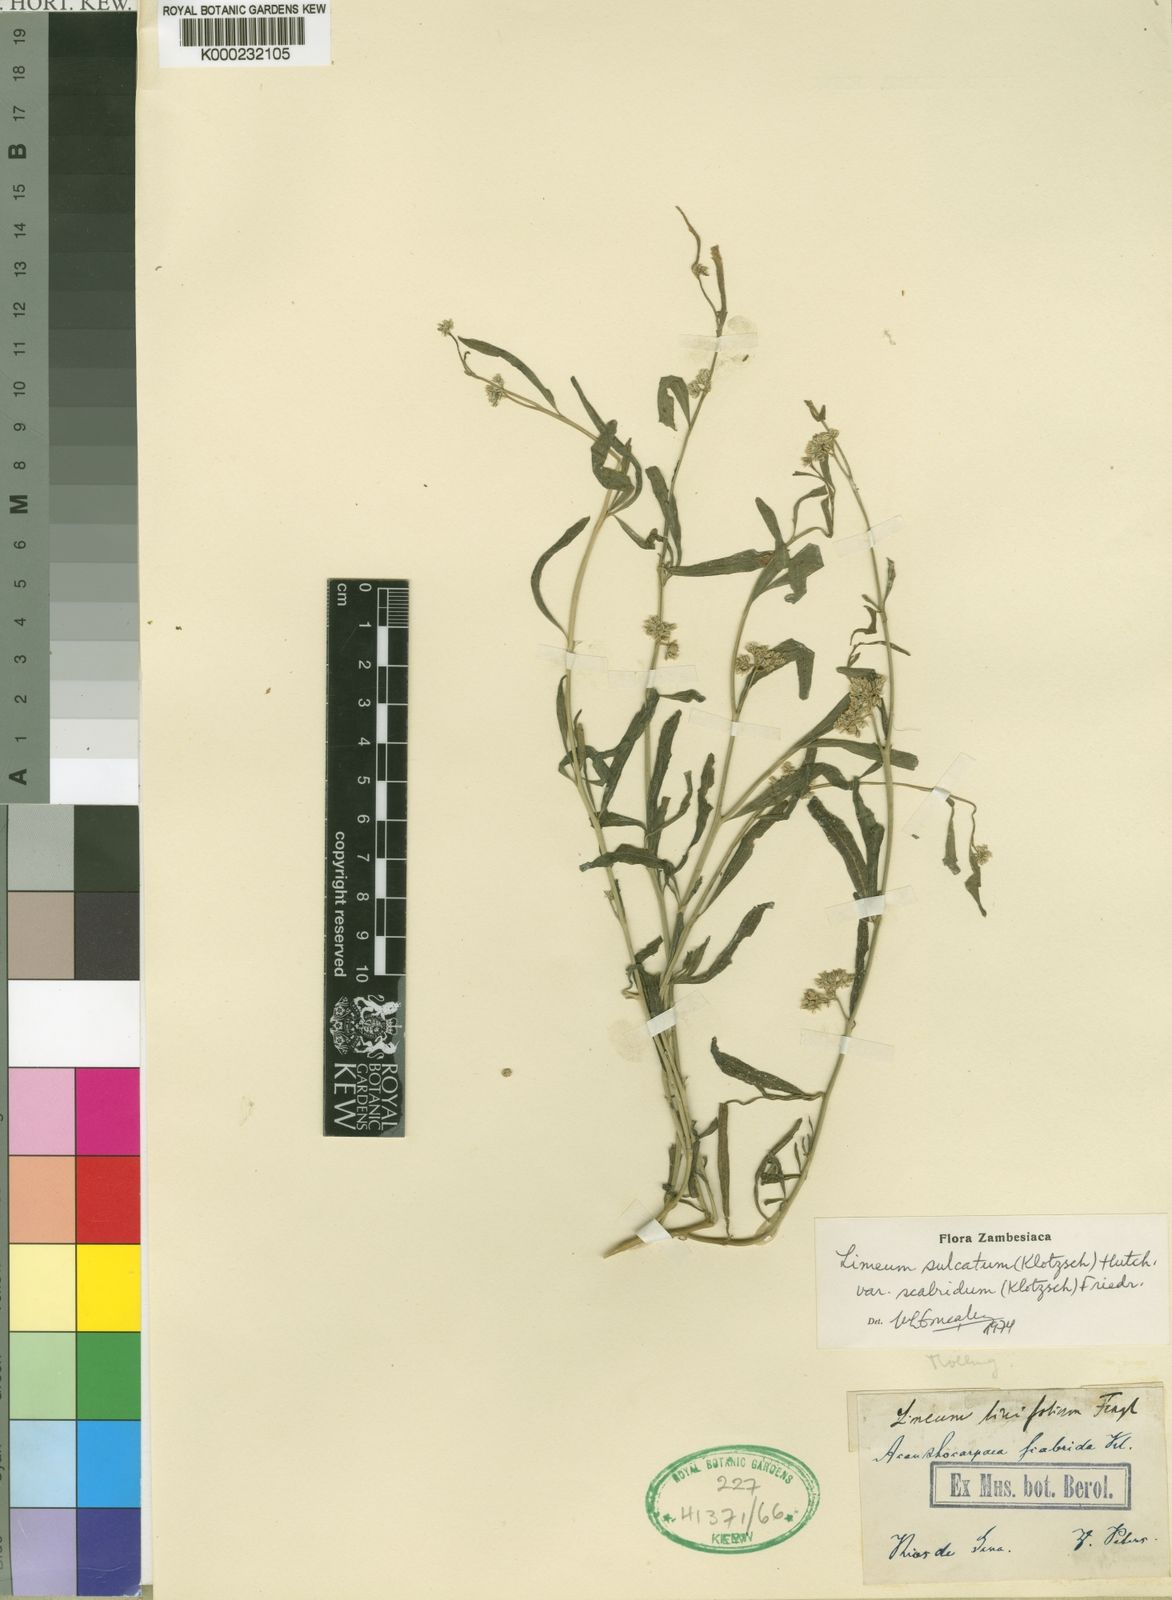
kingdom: Plantae
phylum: Tracheophyta
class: Magnoliopsida
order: Caryophyllales
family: Limeaceae
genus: Limeum
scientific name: Limeum sulcatum
